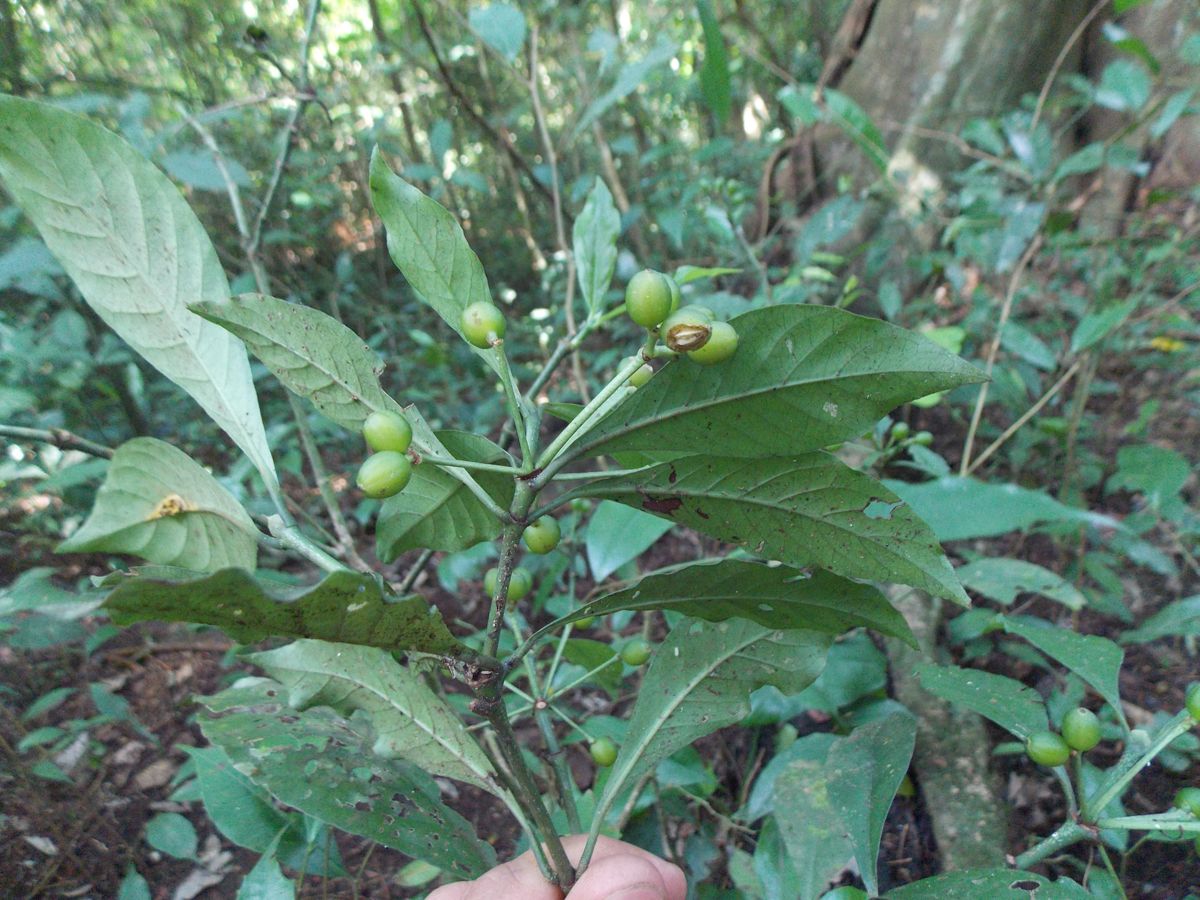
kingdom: Plantae
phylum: Tracheophyta
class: Magnoliopsida
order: Gentianales
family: Rubiaceae
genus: Psychotria
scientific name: Psychotria
